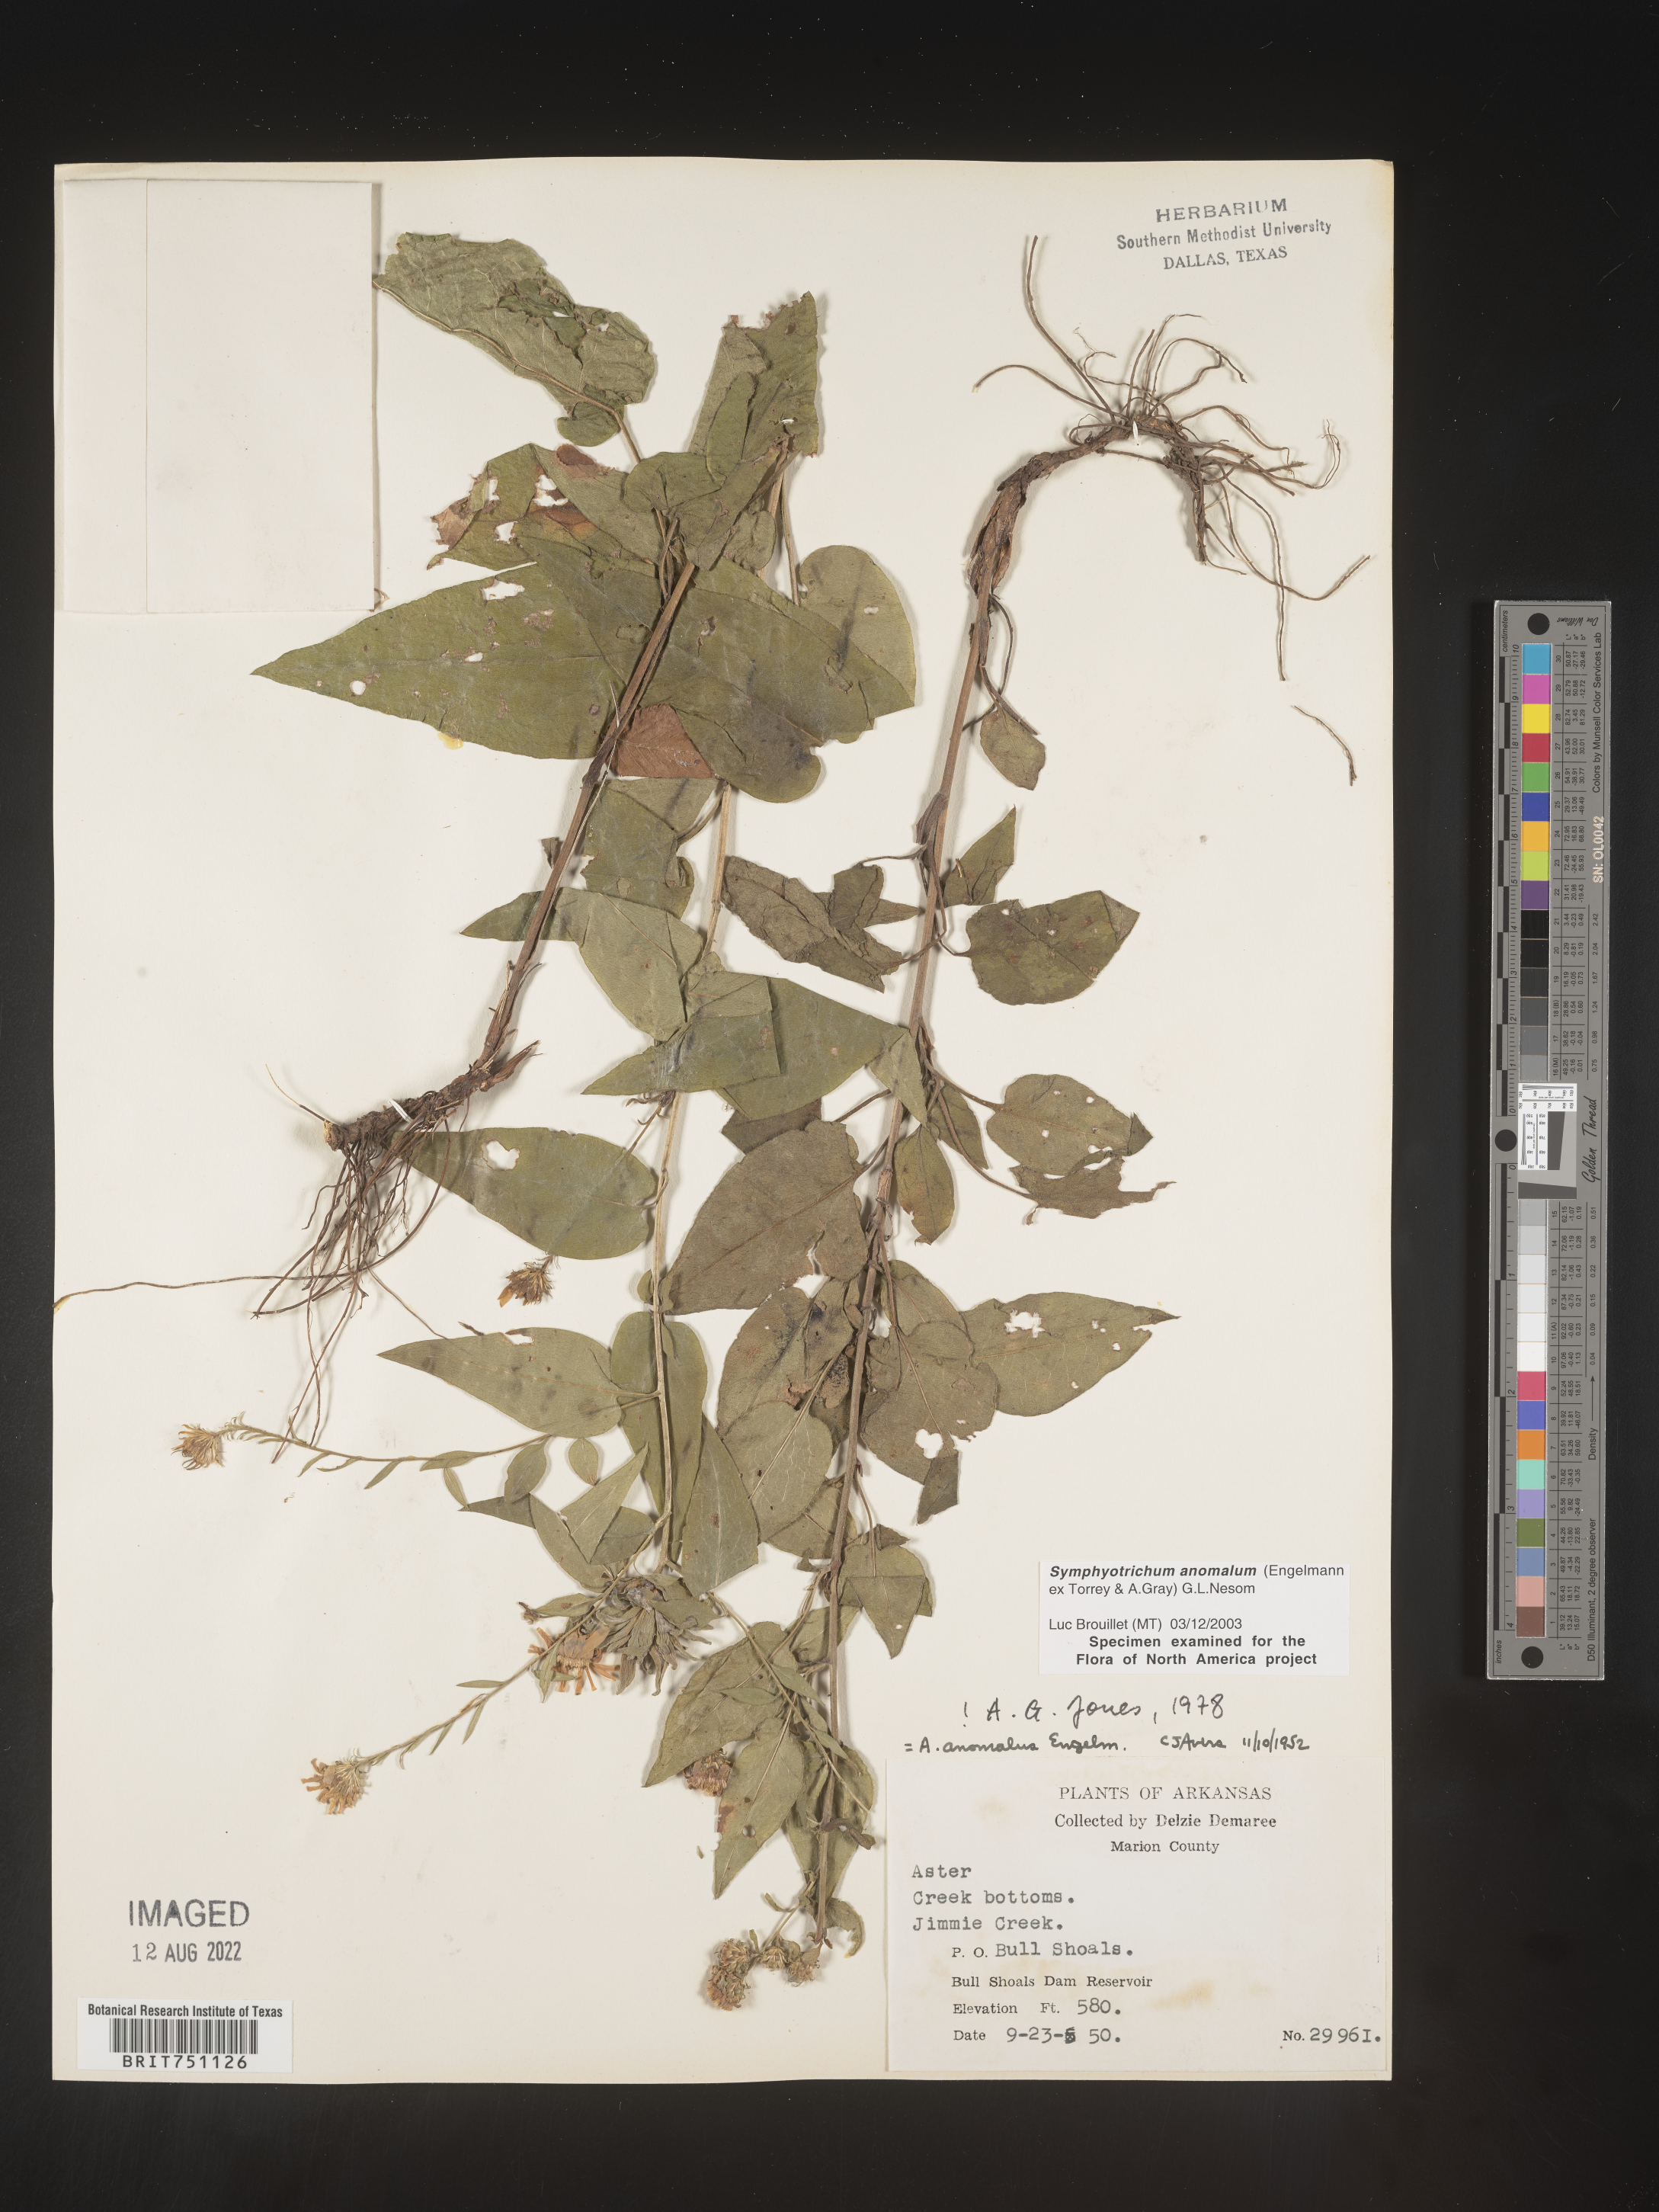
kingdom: Plantae
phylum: Tracheophyta
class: Magnoliopsida
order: Asterales
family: Asteraceae
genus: Symphyotrichum
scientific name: Symphyotrichum anomalum
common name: Many-ray aster
